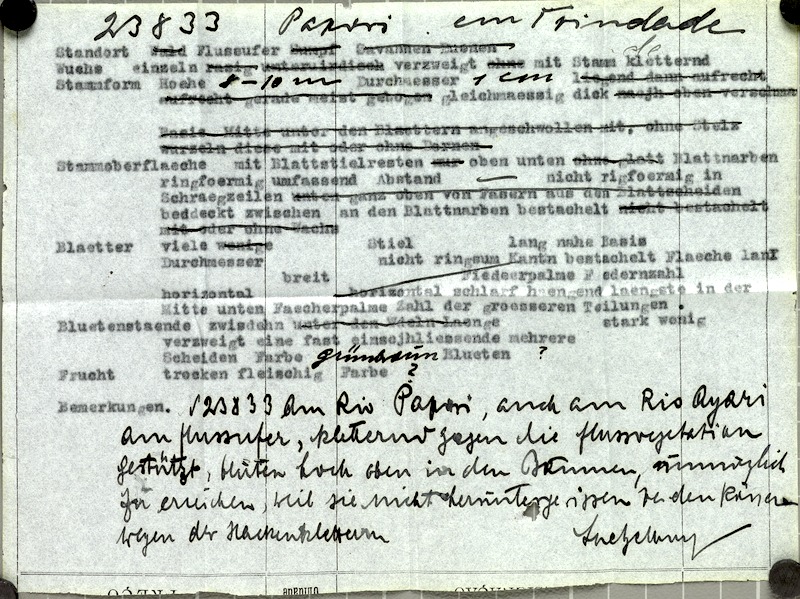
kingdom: Plantae
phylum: Tracheophyta
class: Liliopsida
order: Arecales
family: Arecaceae
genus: Desmoncus
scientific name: Desmoncus orthacanthos
